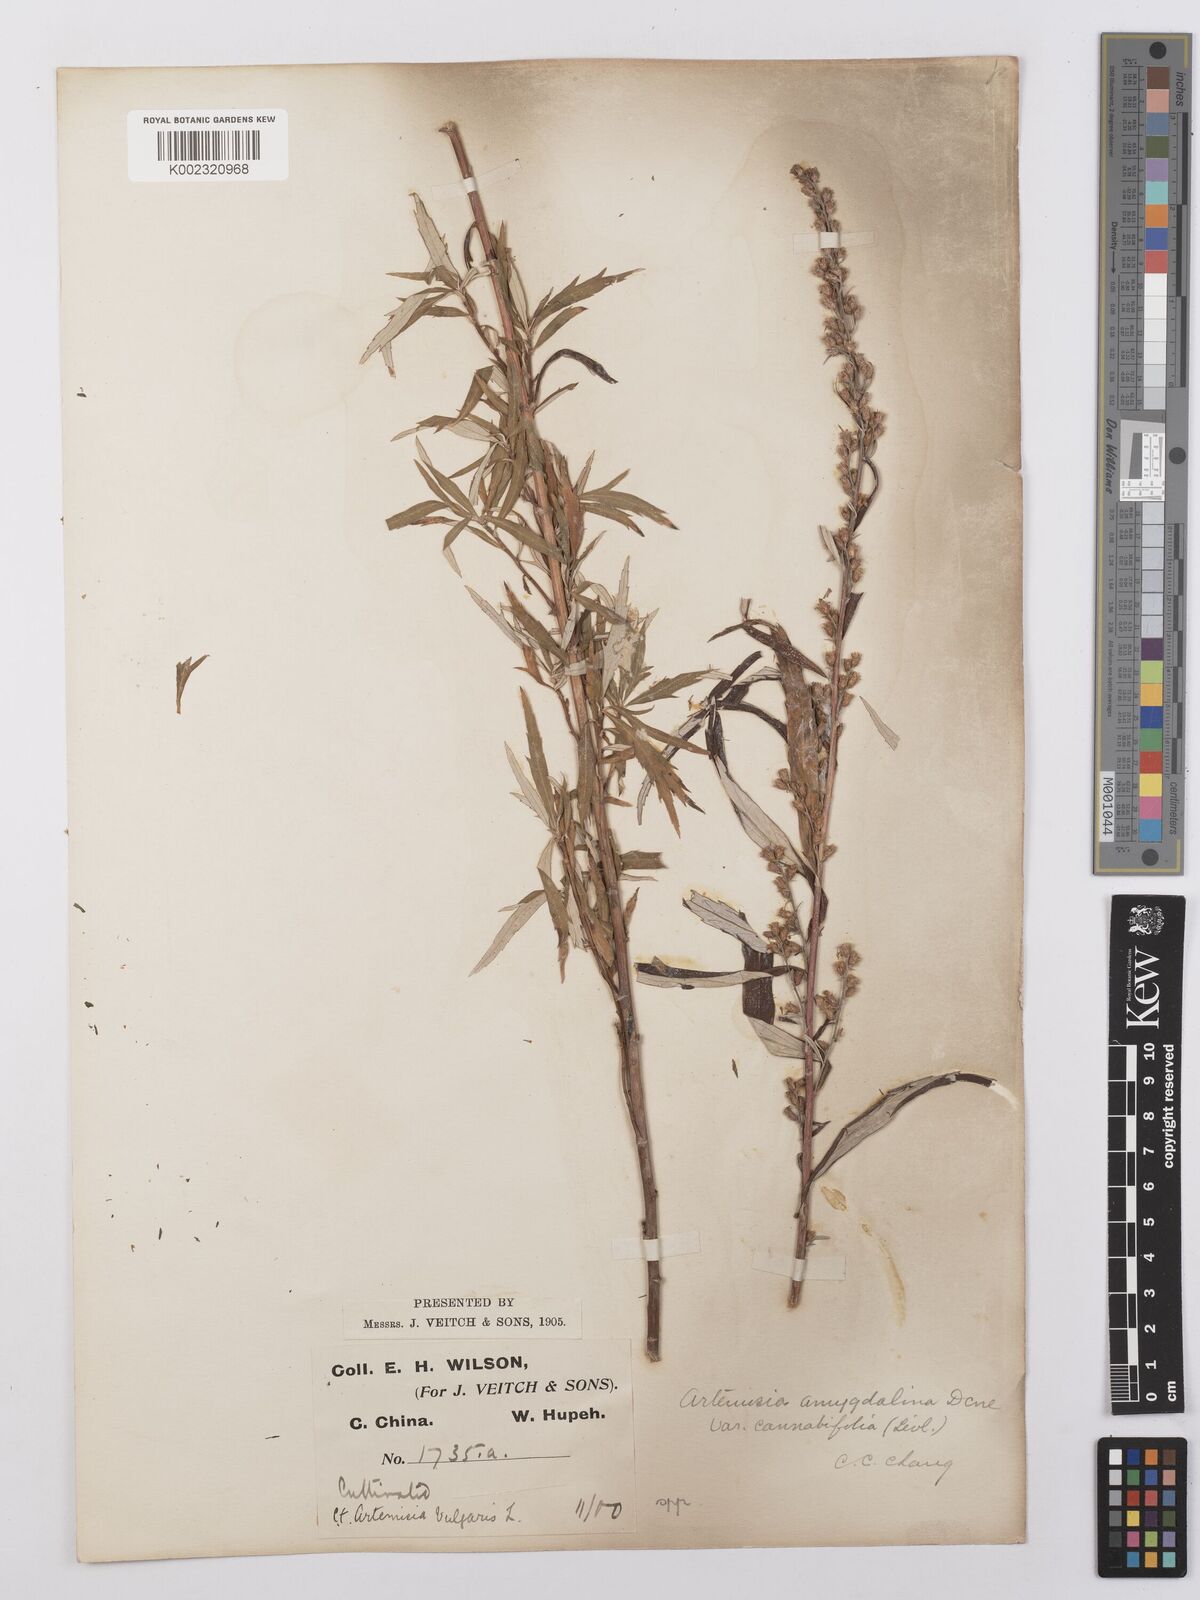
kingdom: Plantae
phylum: Tracheophyta
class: Magnoliopsida
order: Asterales
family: Asteraceae
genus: Artemisia
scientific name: Artemisia
